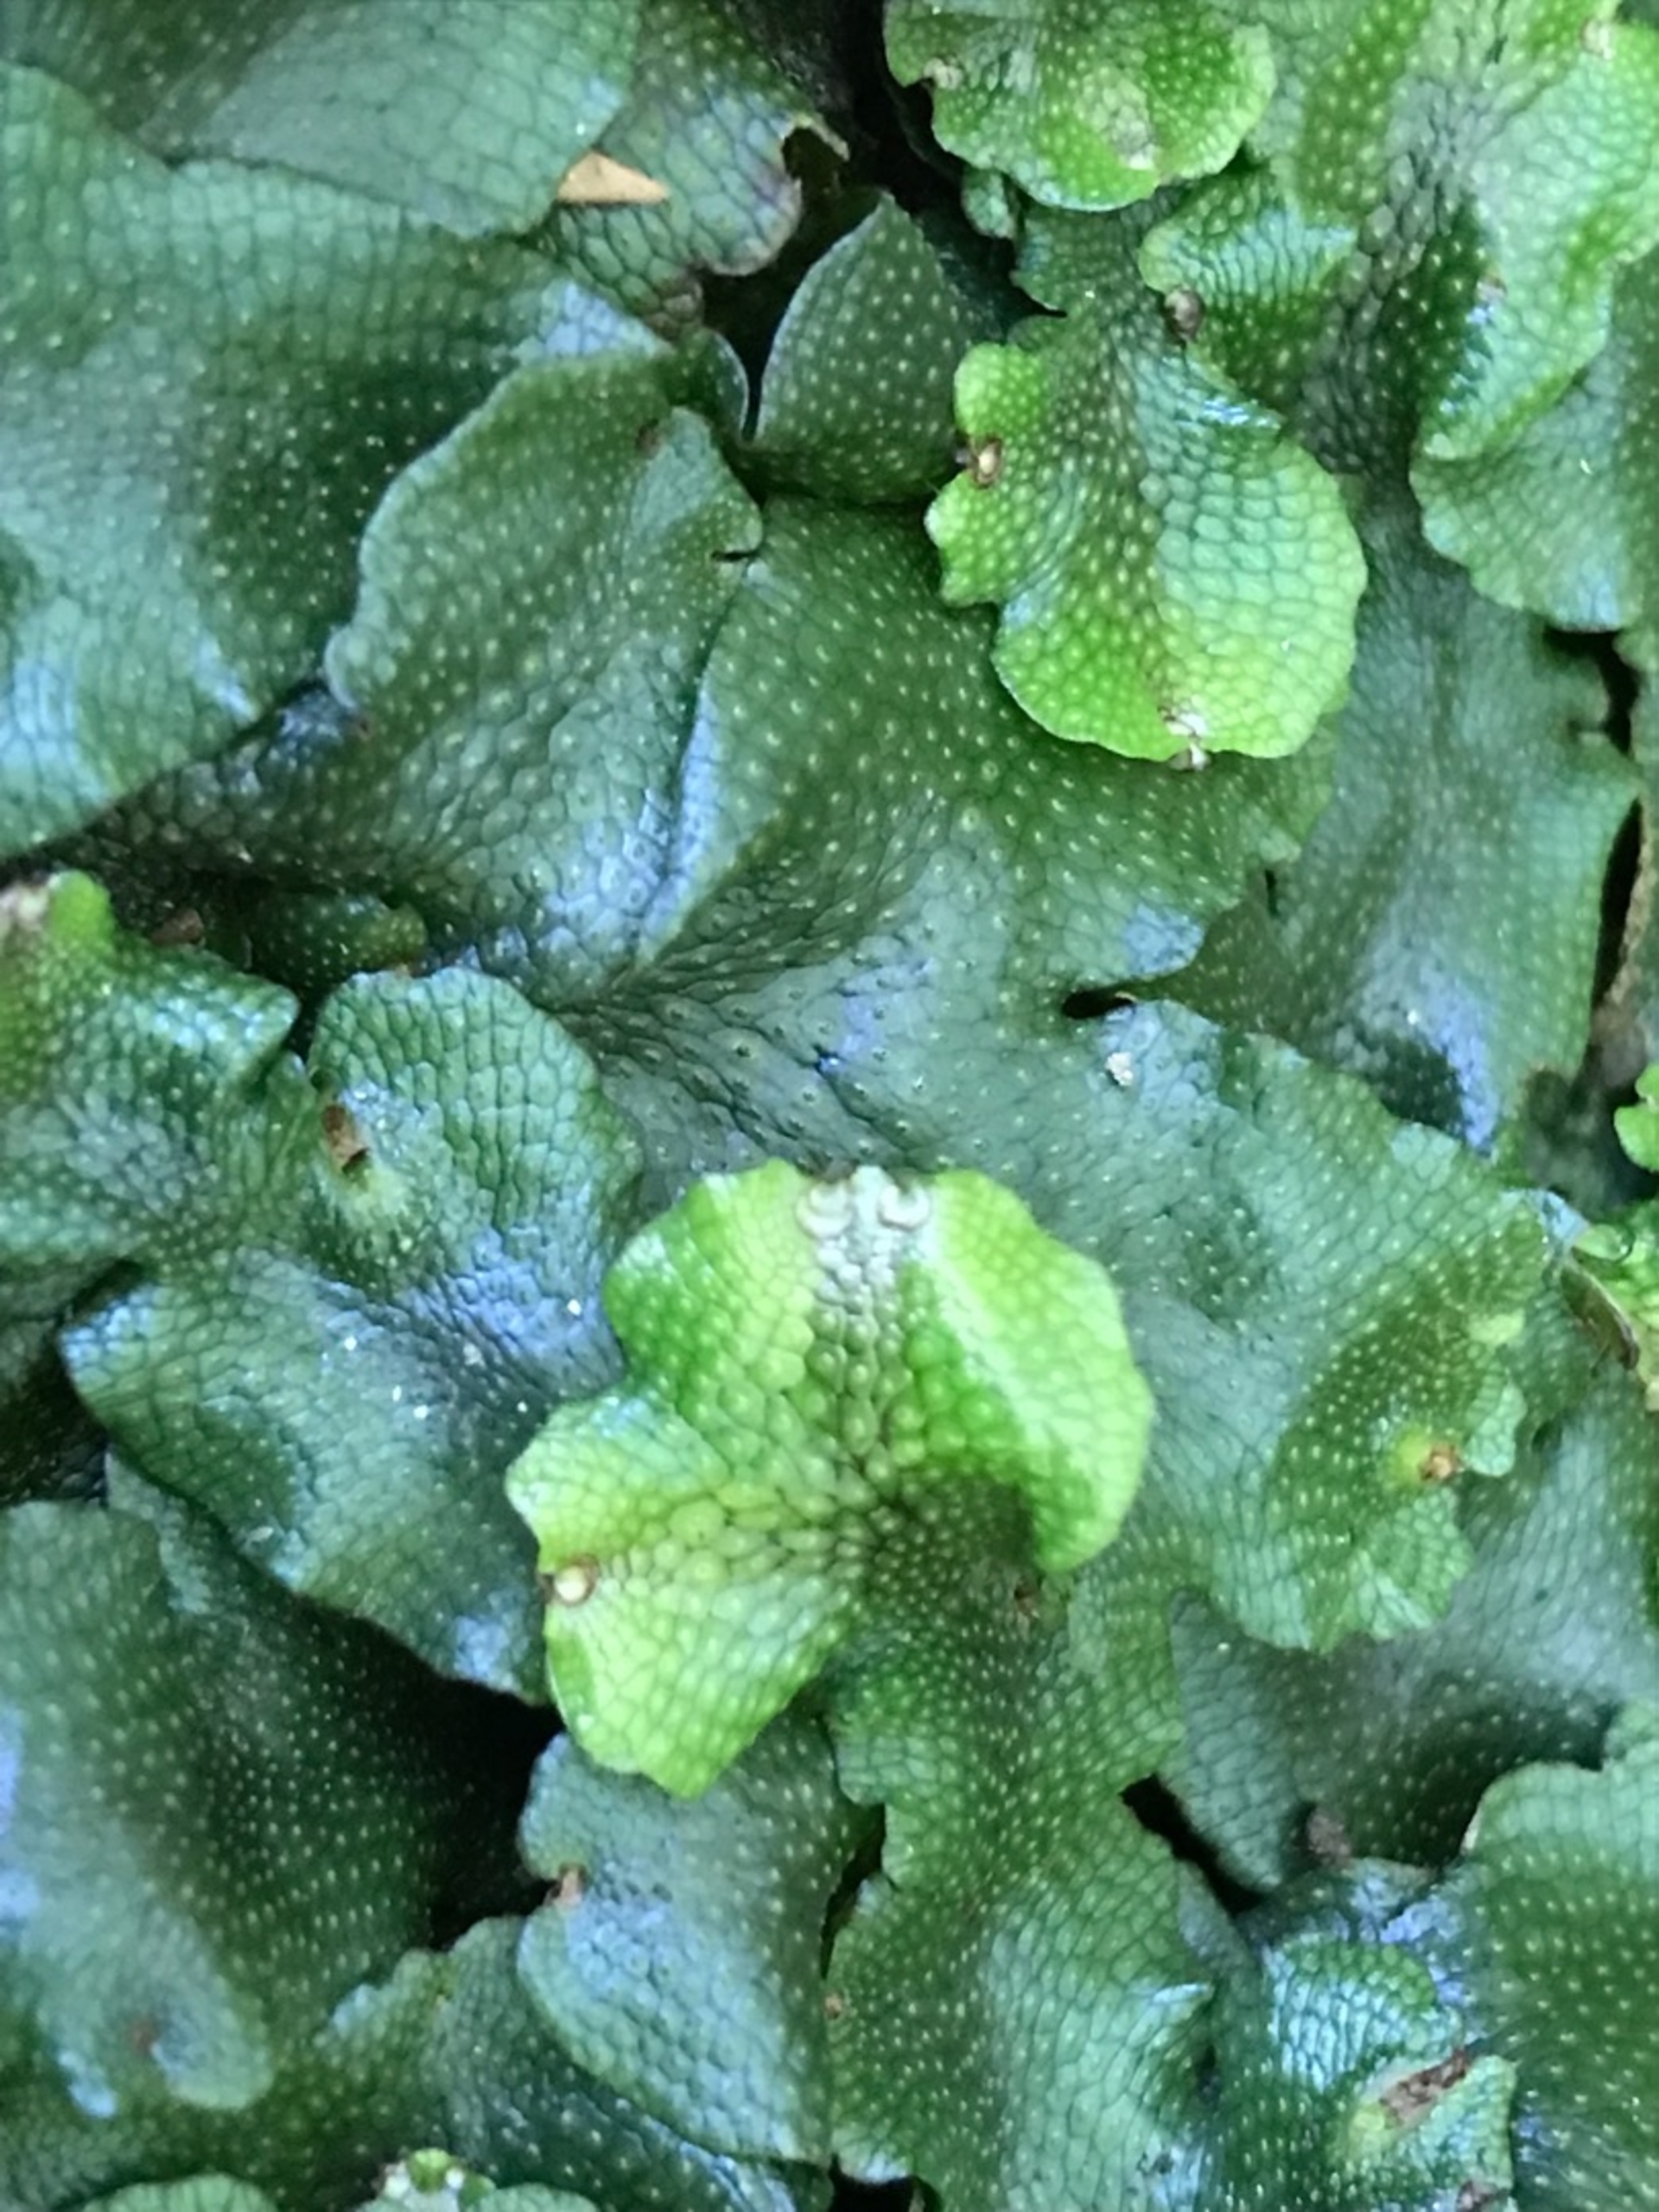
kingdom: Plantae
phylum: Marchantiophyta
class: Marchantiopsida
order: Marchantiales
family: Conocephalaceae
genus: Conocephalum
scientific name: Conocephalum conicum
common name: Glat krokodillemos
